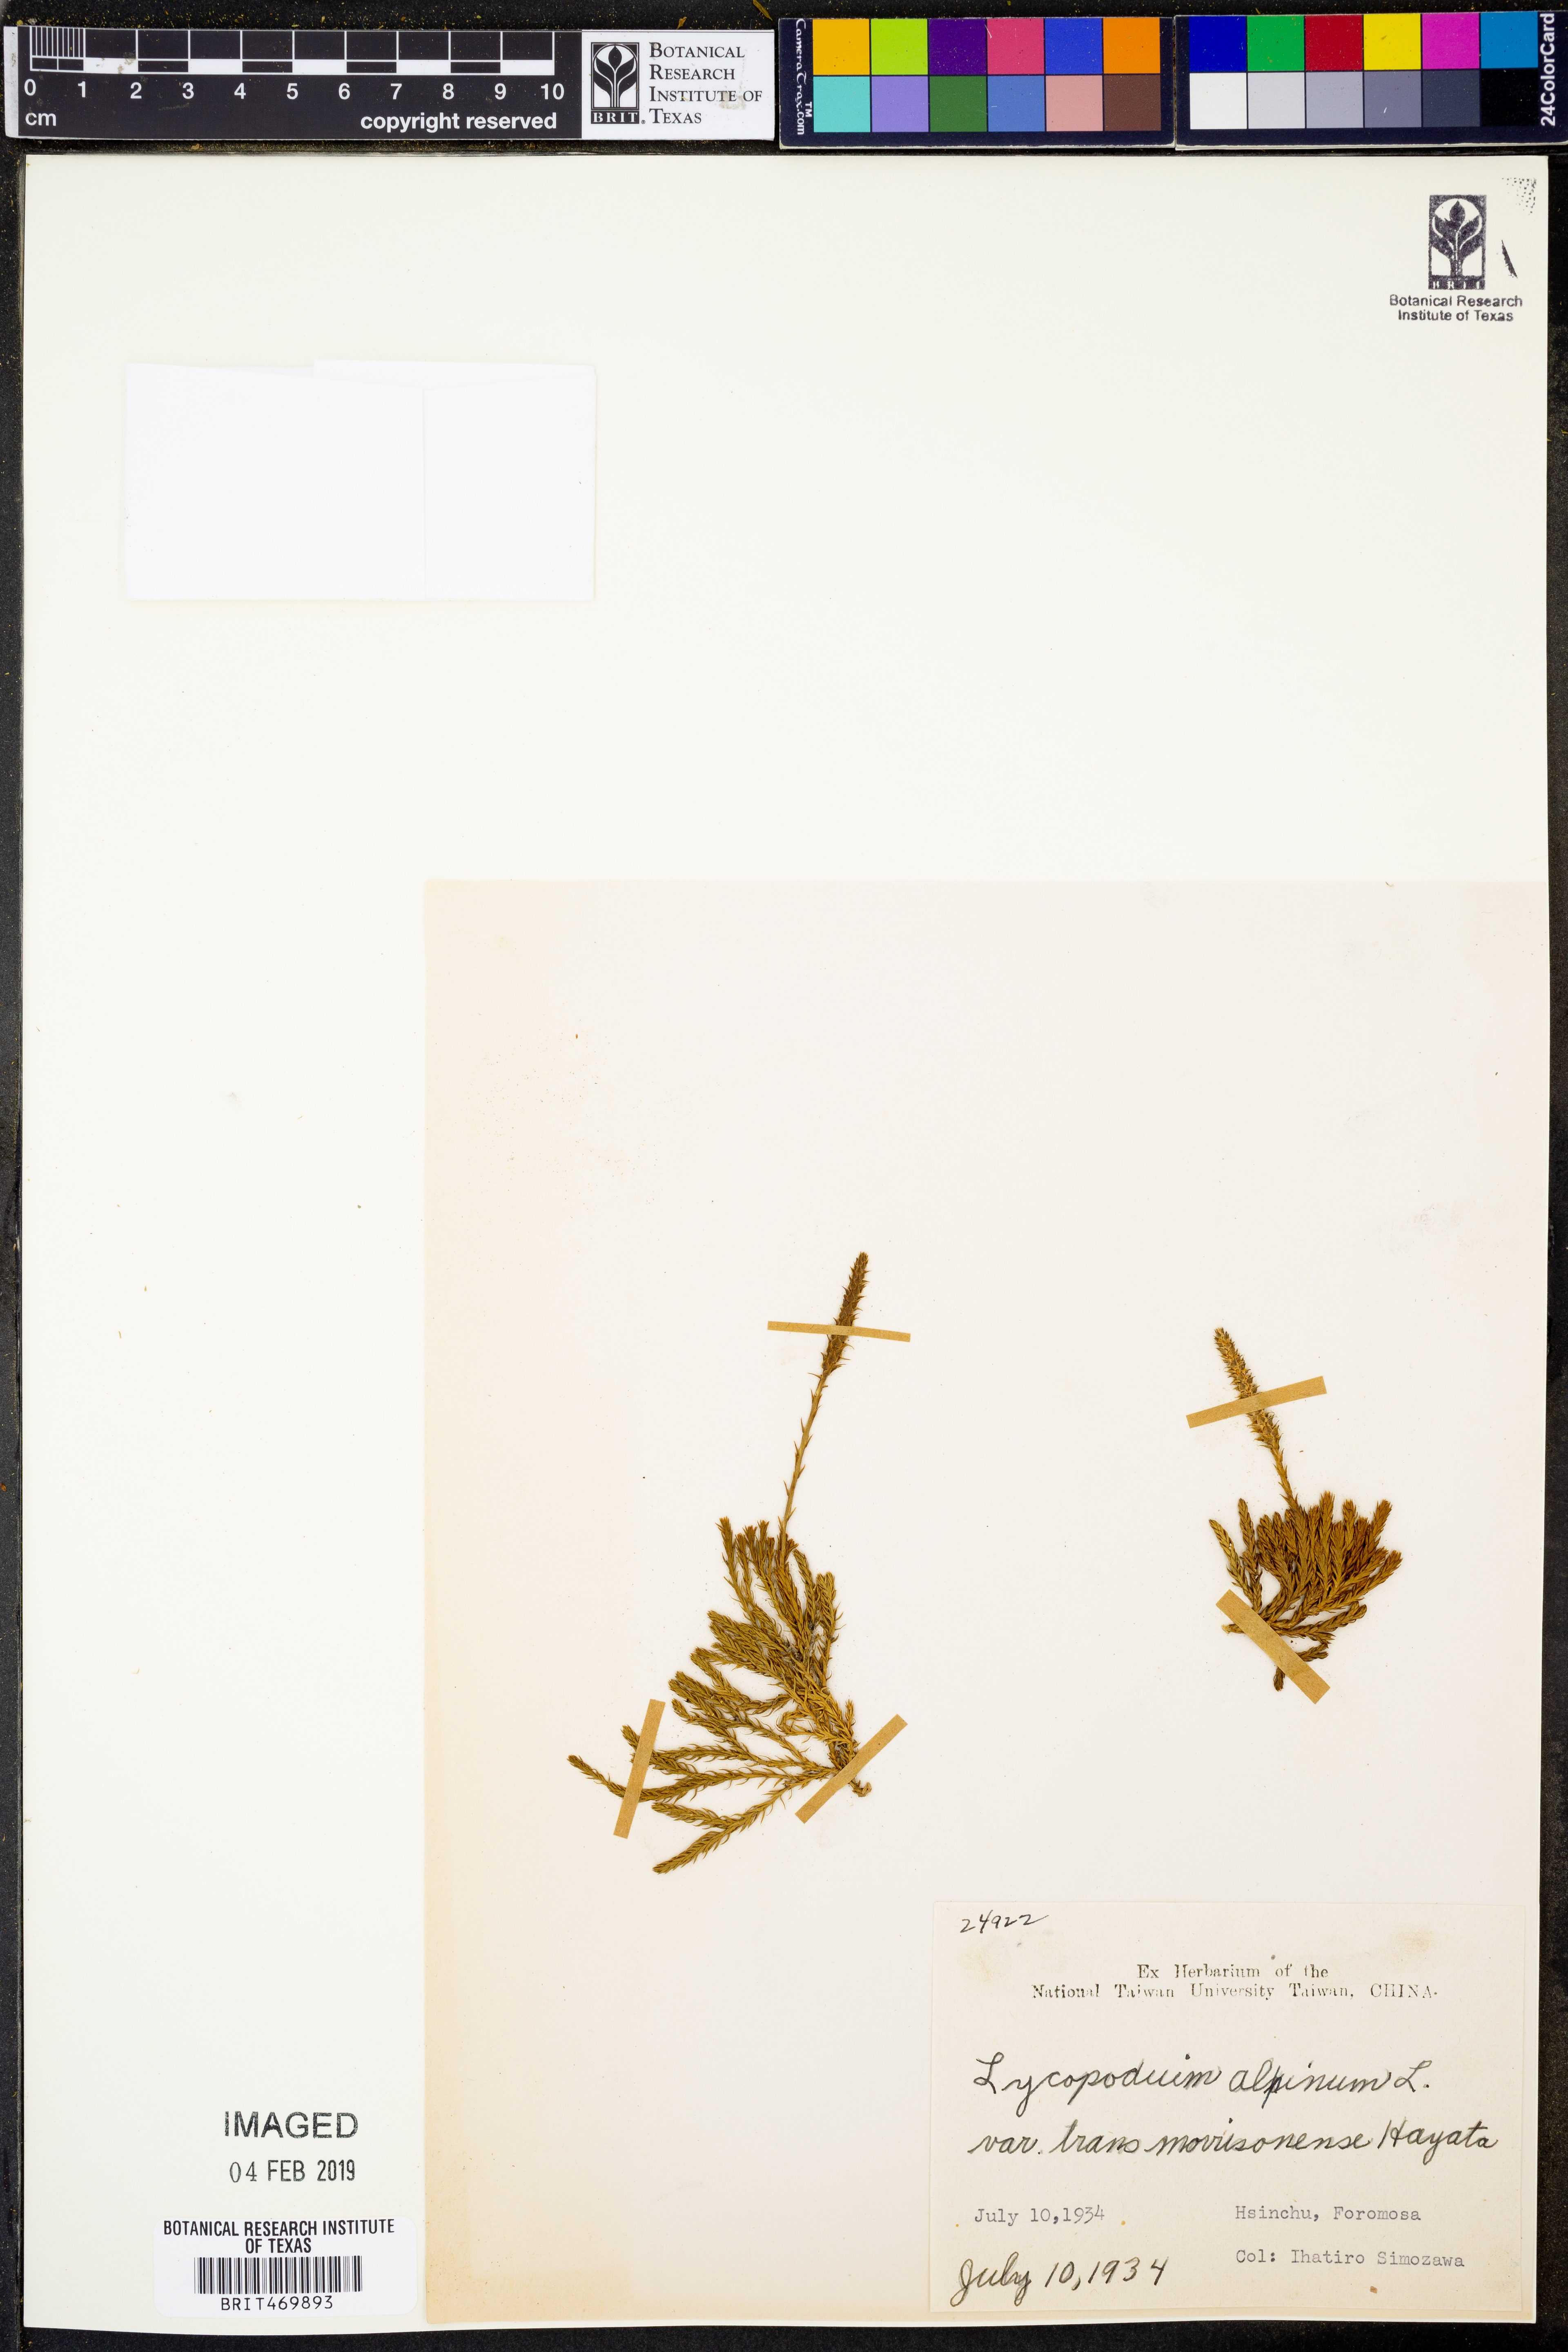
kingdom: Plantae
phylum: Tracheophyta
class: Lycopodiopsida
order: Lycopodiales
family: Lycopodiaceae
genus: Diphasiastrum
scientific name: Diphasiastrum veitchii
